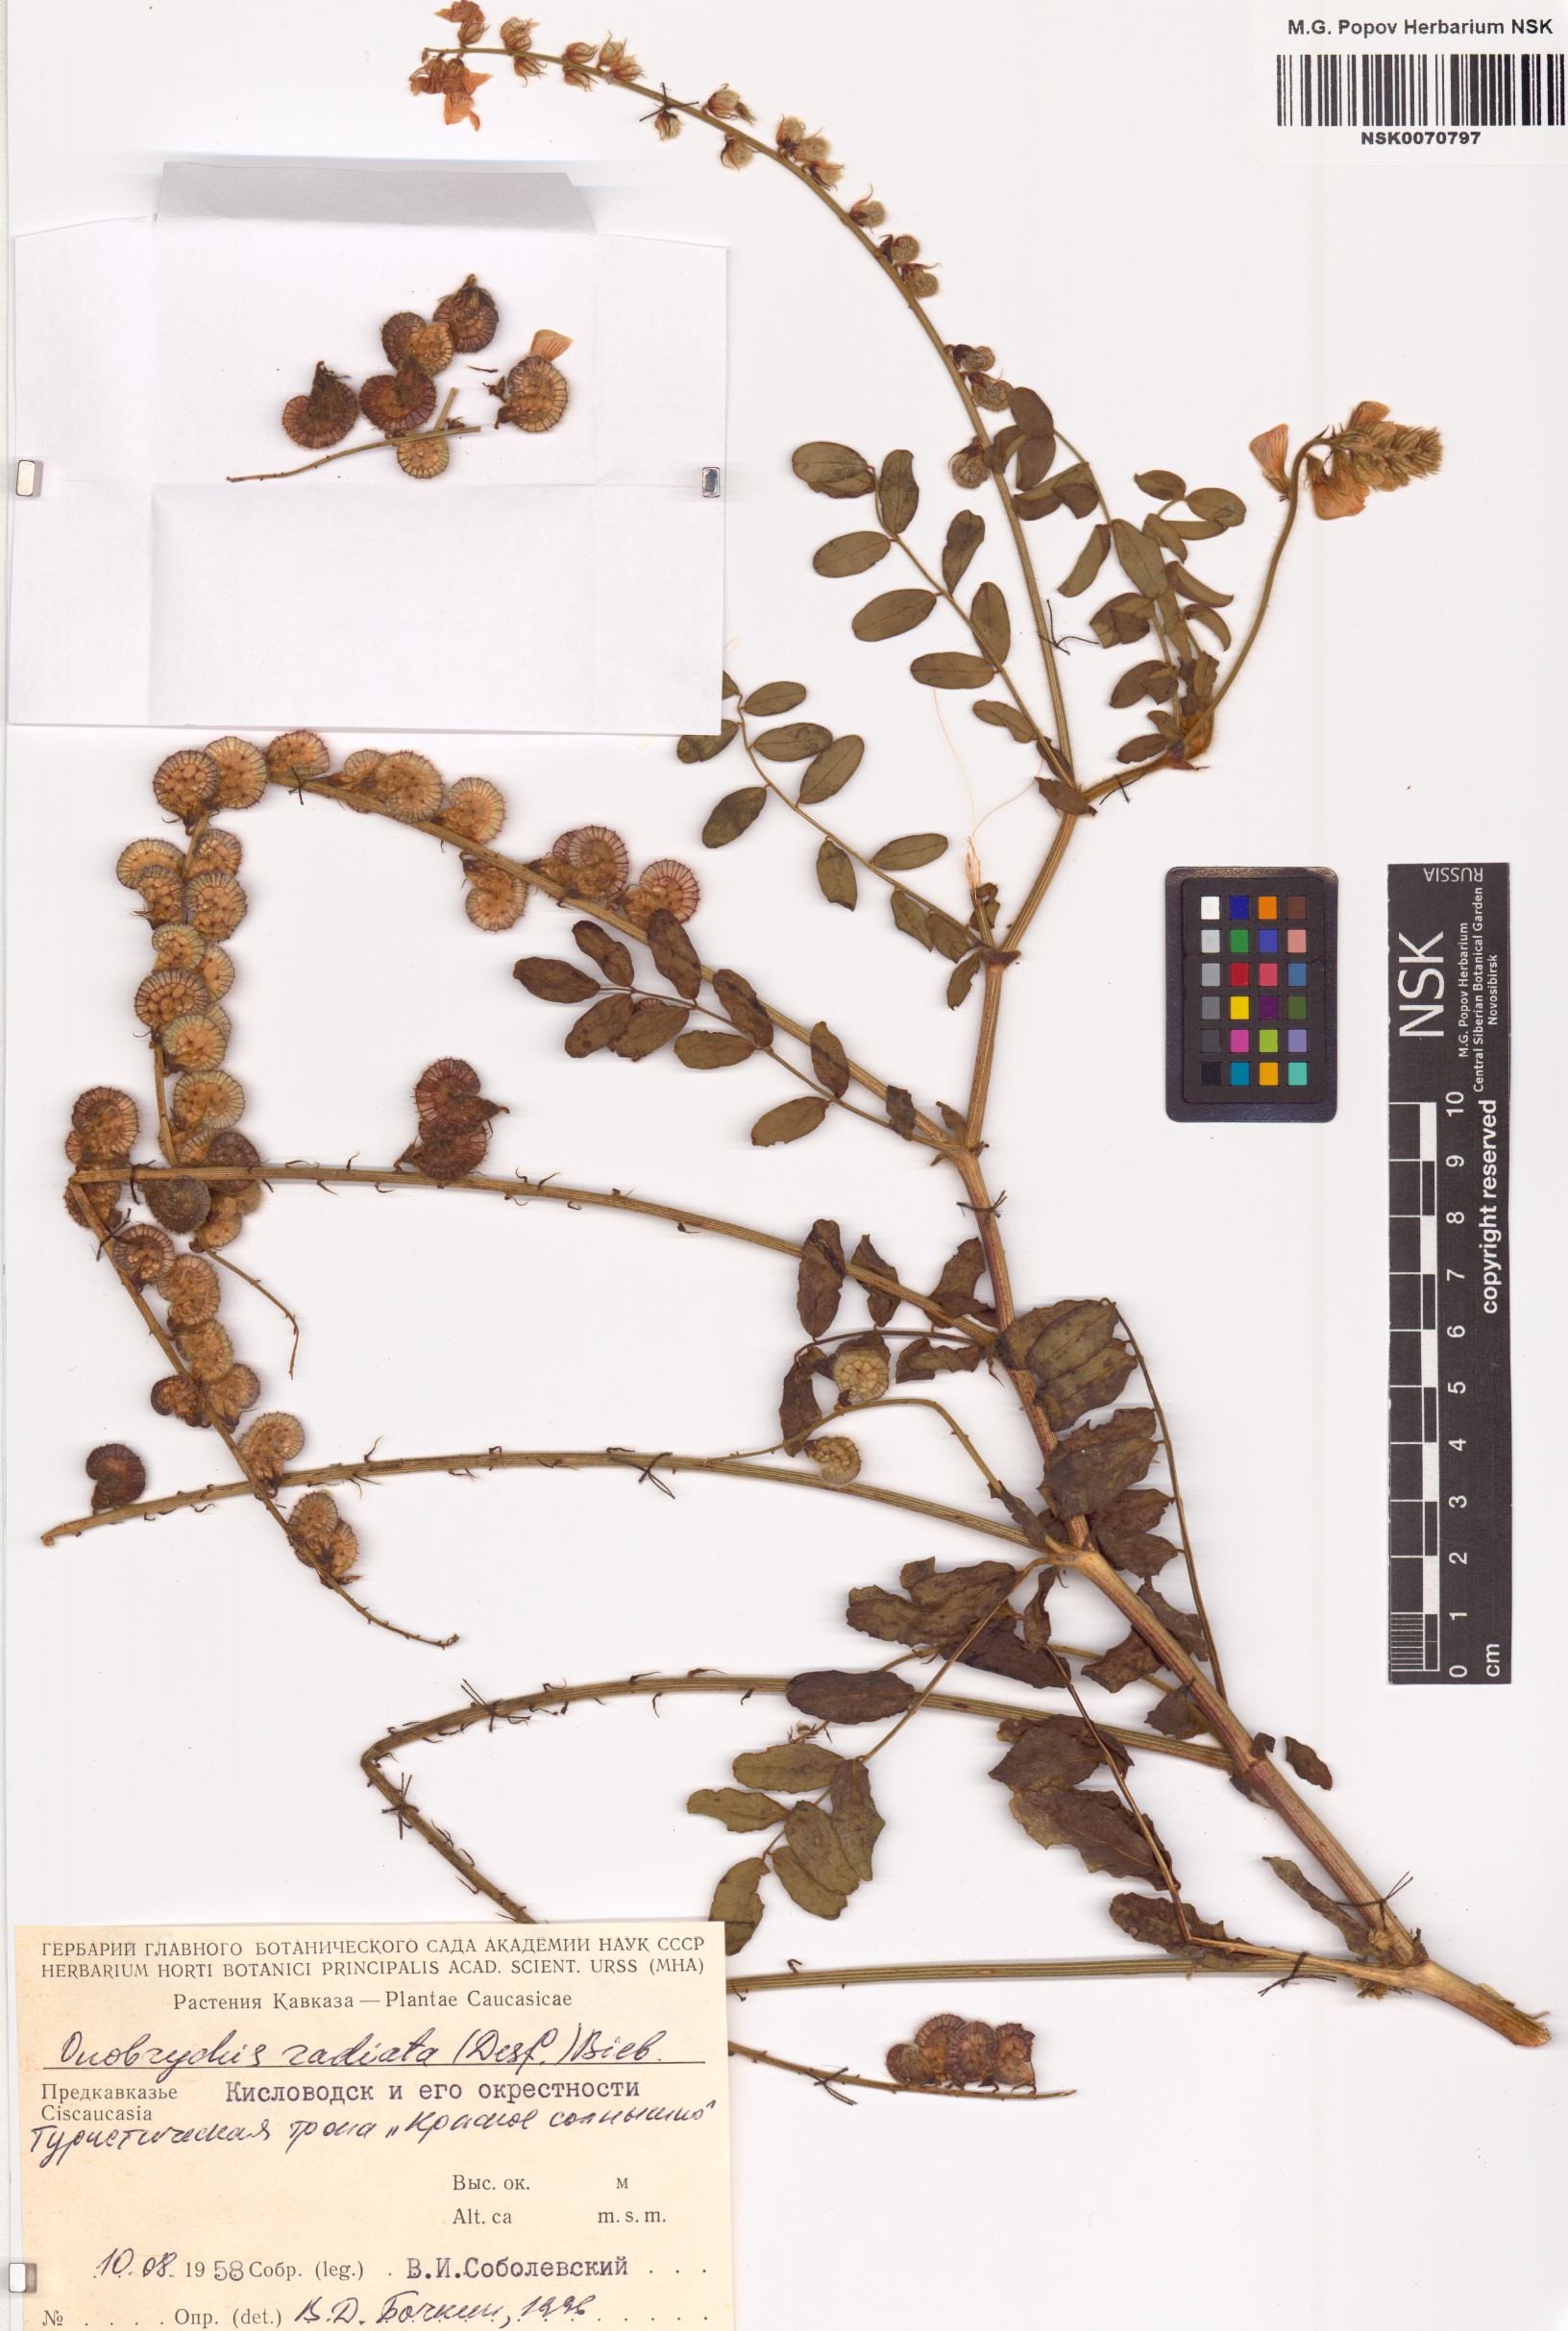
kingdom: Plantae
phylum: Tracheophyta
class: Magnoliopsida
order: Fabales
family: Fabaceae
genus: Onobrychis
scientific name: Onobrychis radiata
